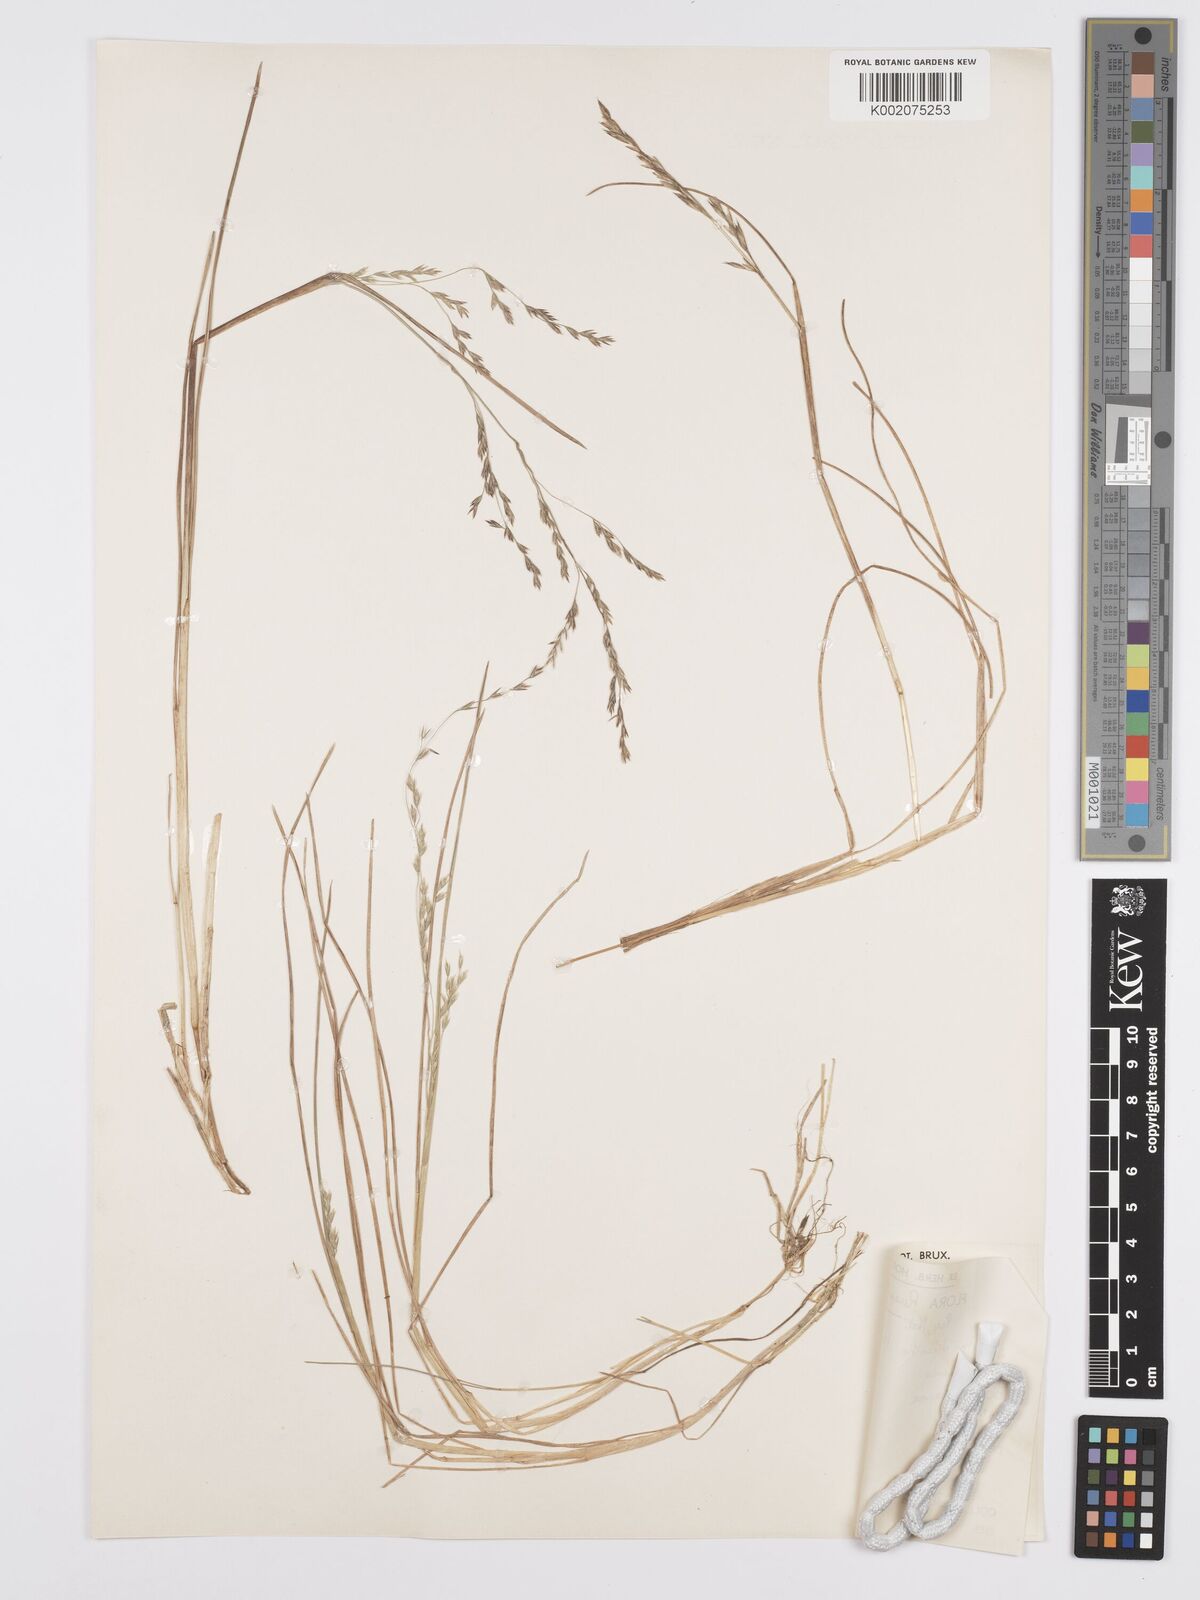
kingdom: Plantae
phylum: Tracheophyta
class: Liliopsida
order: Poales
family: Poaceae
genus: Poa
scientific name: Poa schimperiana
